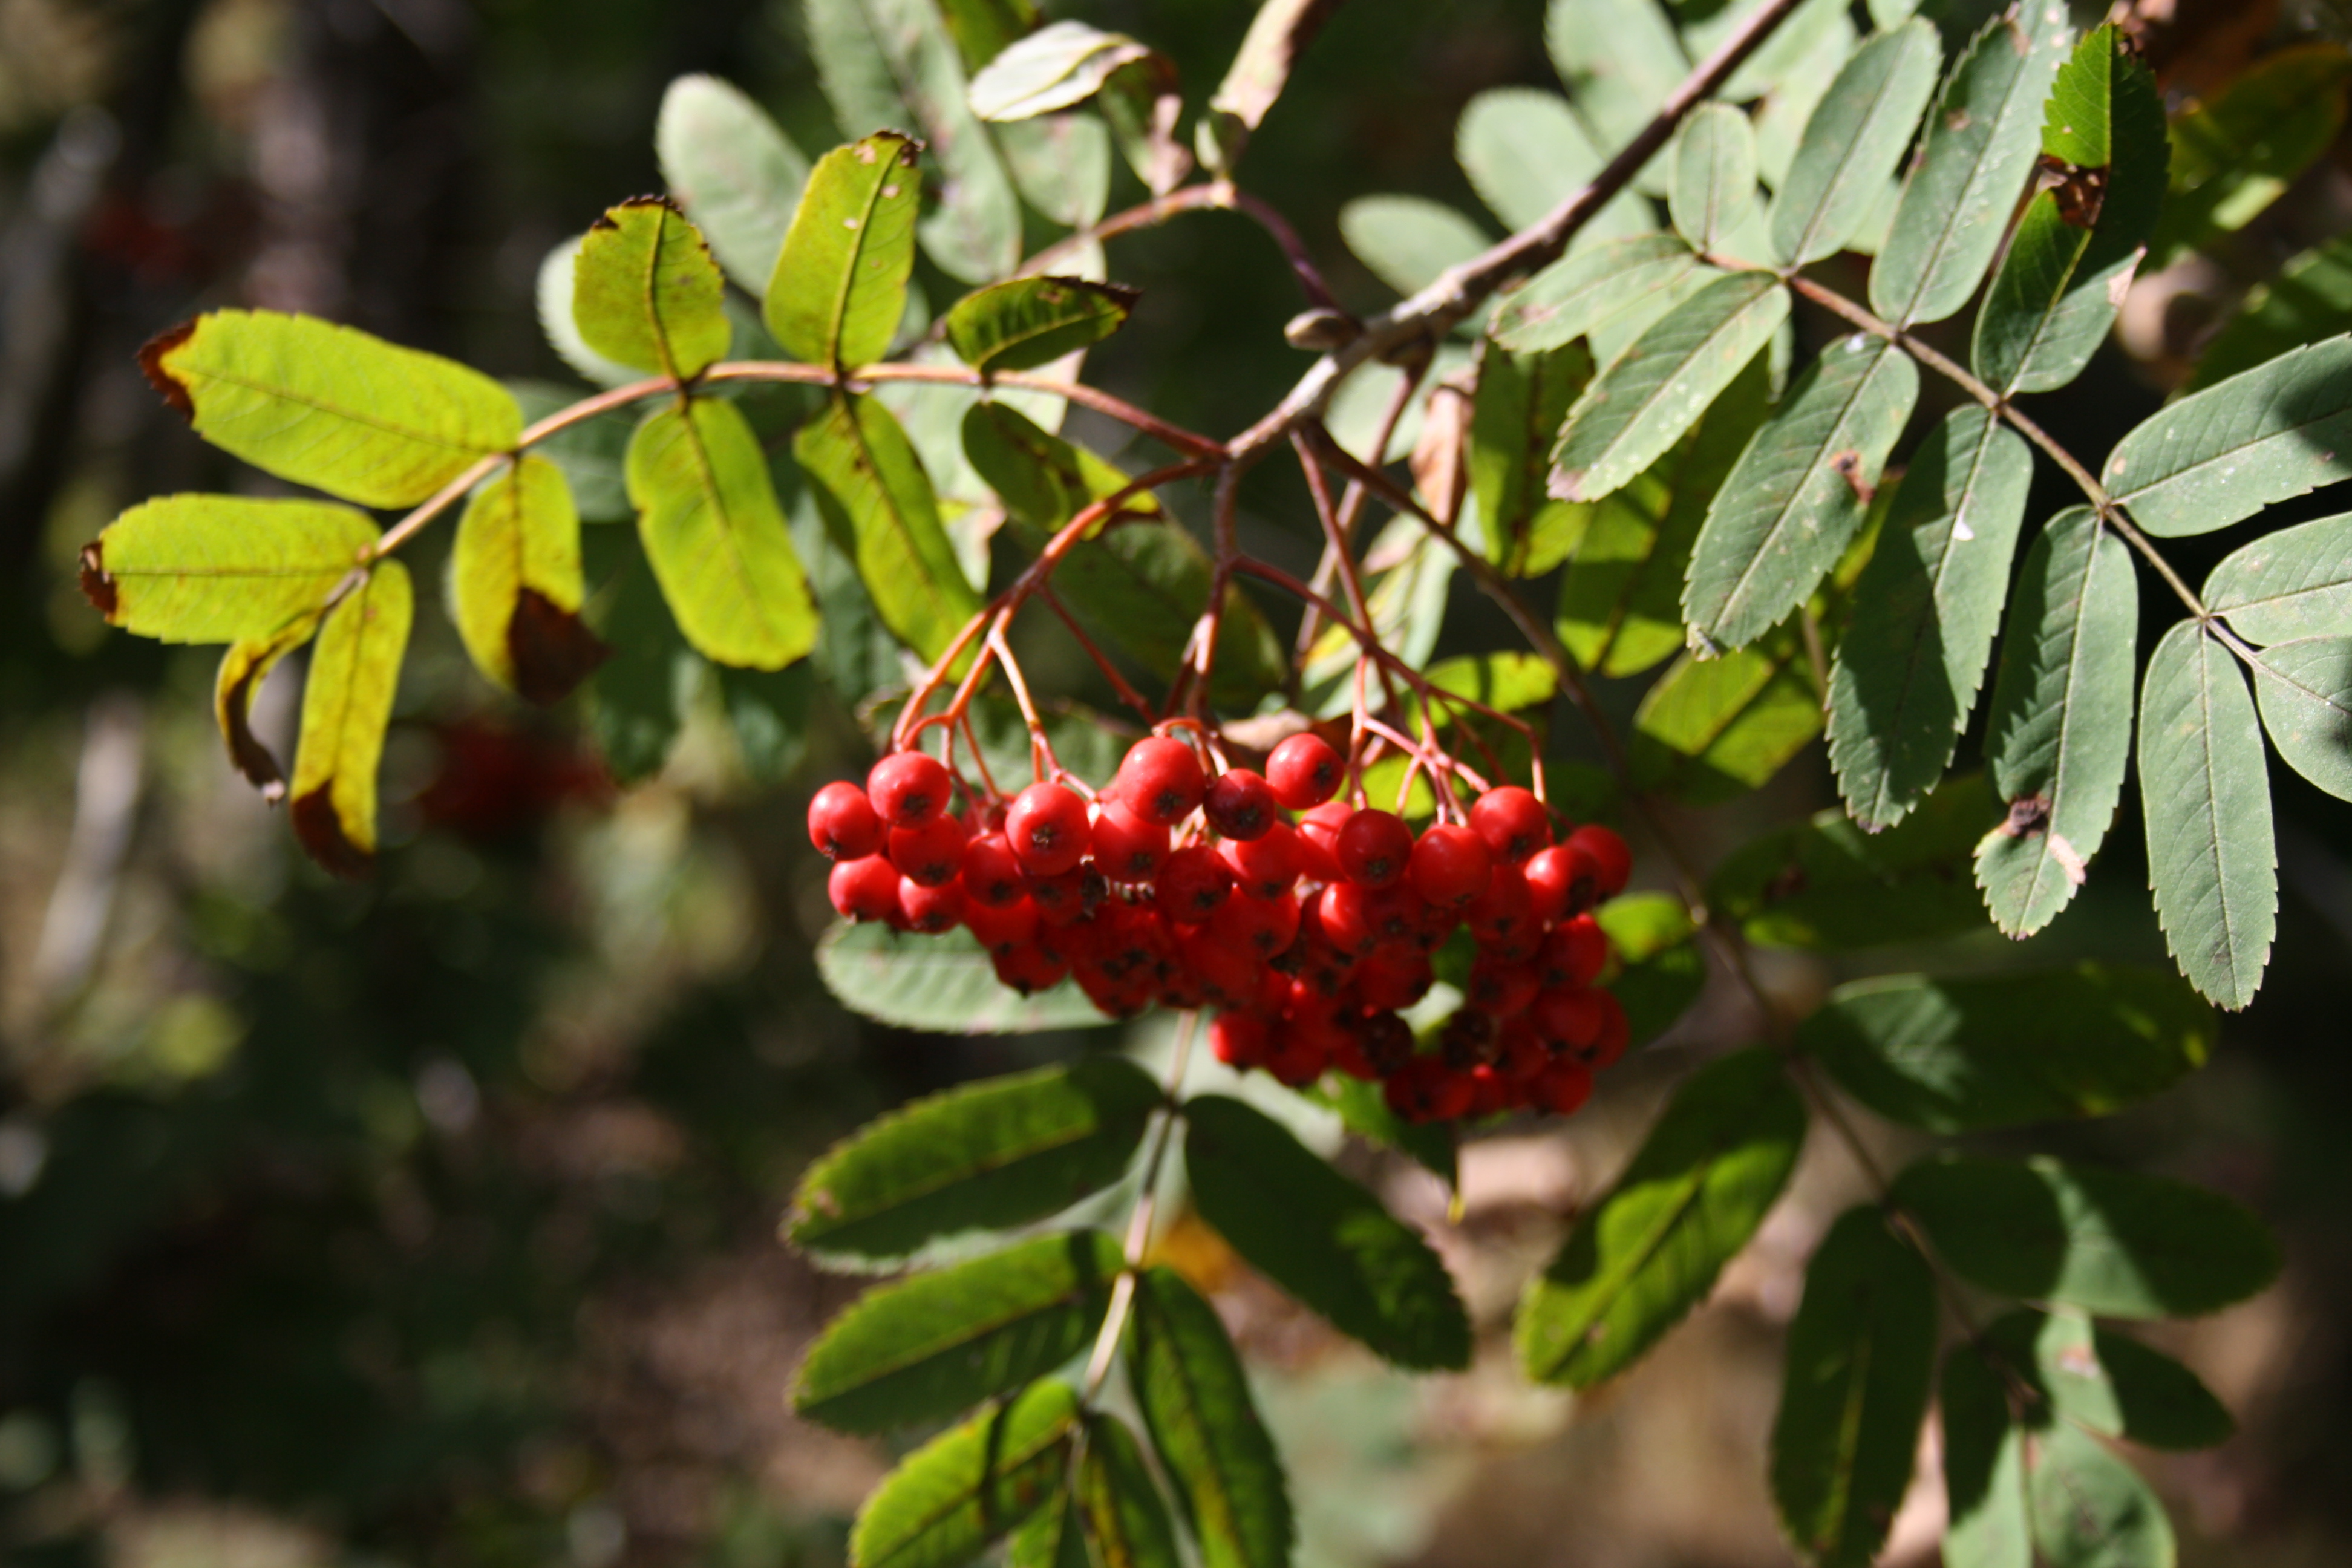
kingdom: Plantae
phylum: Tracheophyta
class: Magnoliopsida
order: Rosales
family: Rosaceae
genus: Sorbus
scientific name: Sorbus aucuparia
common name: Rowan
